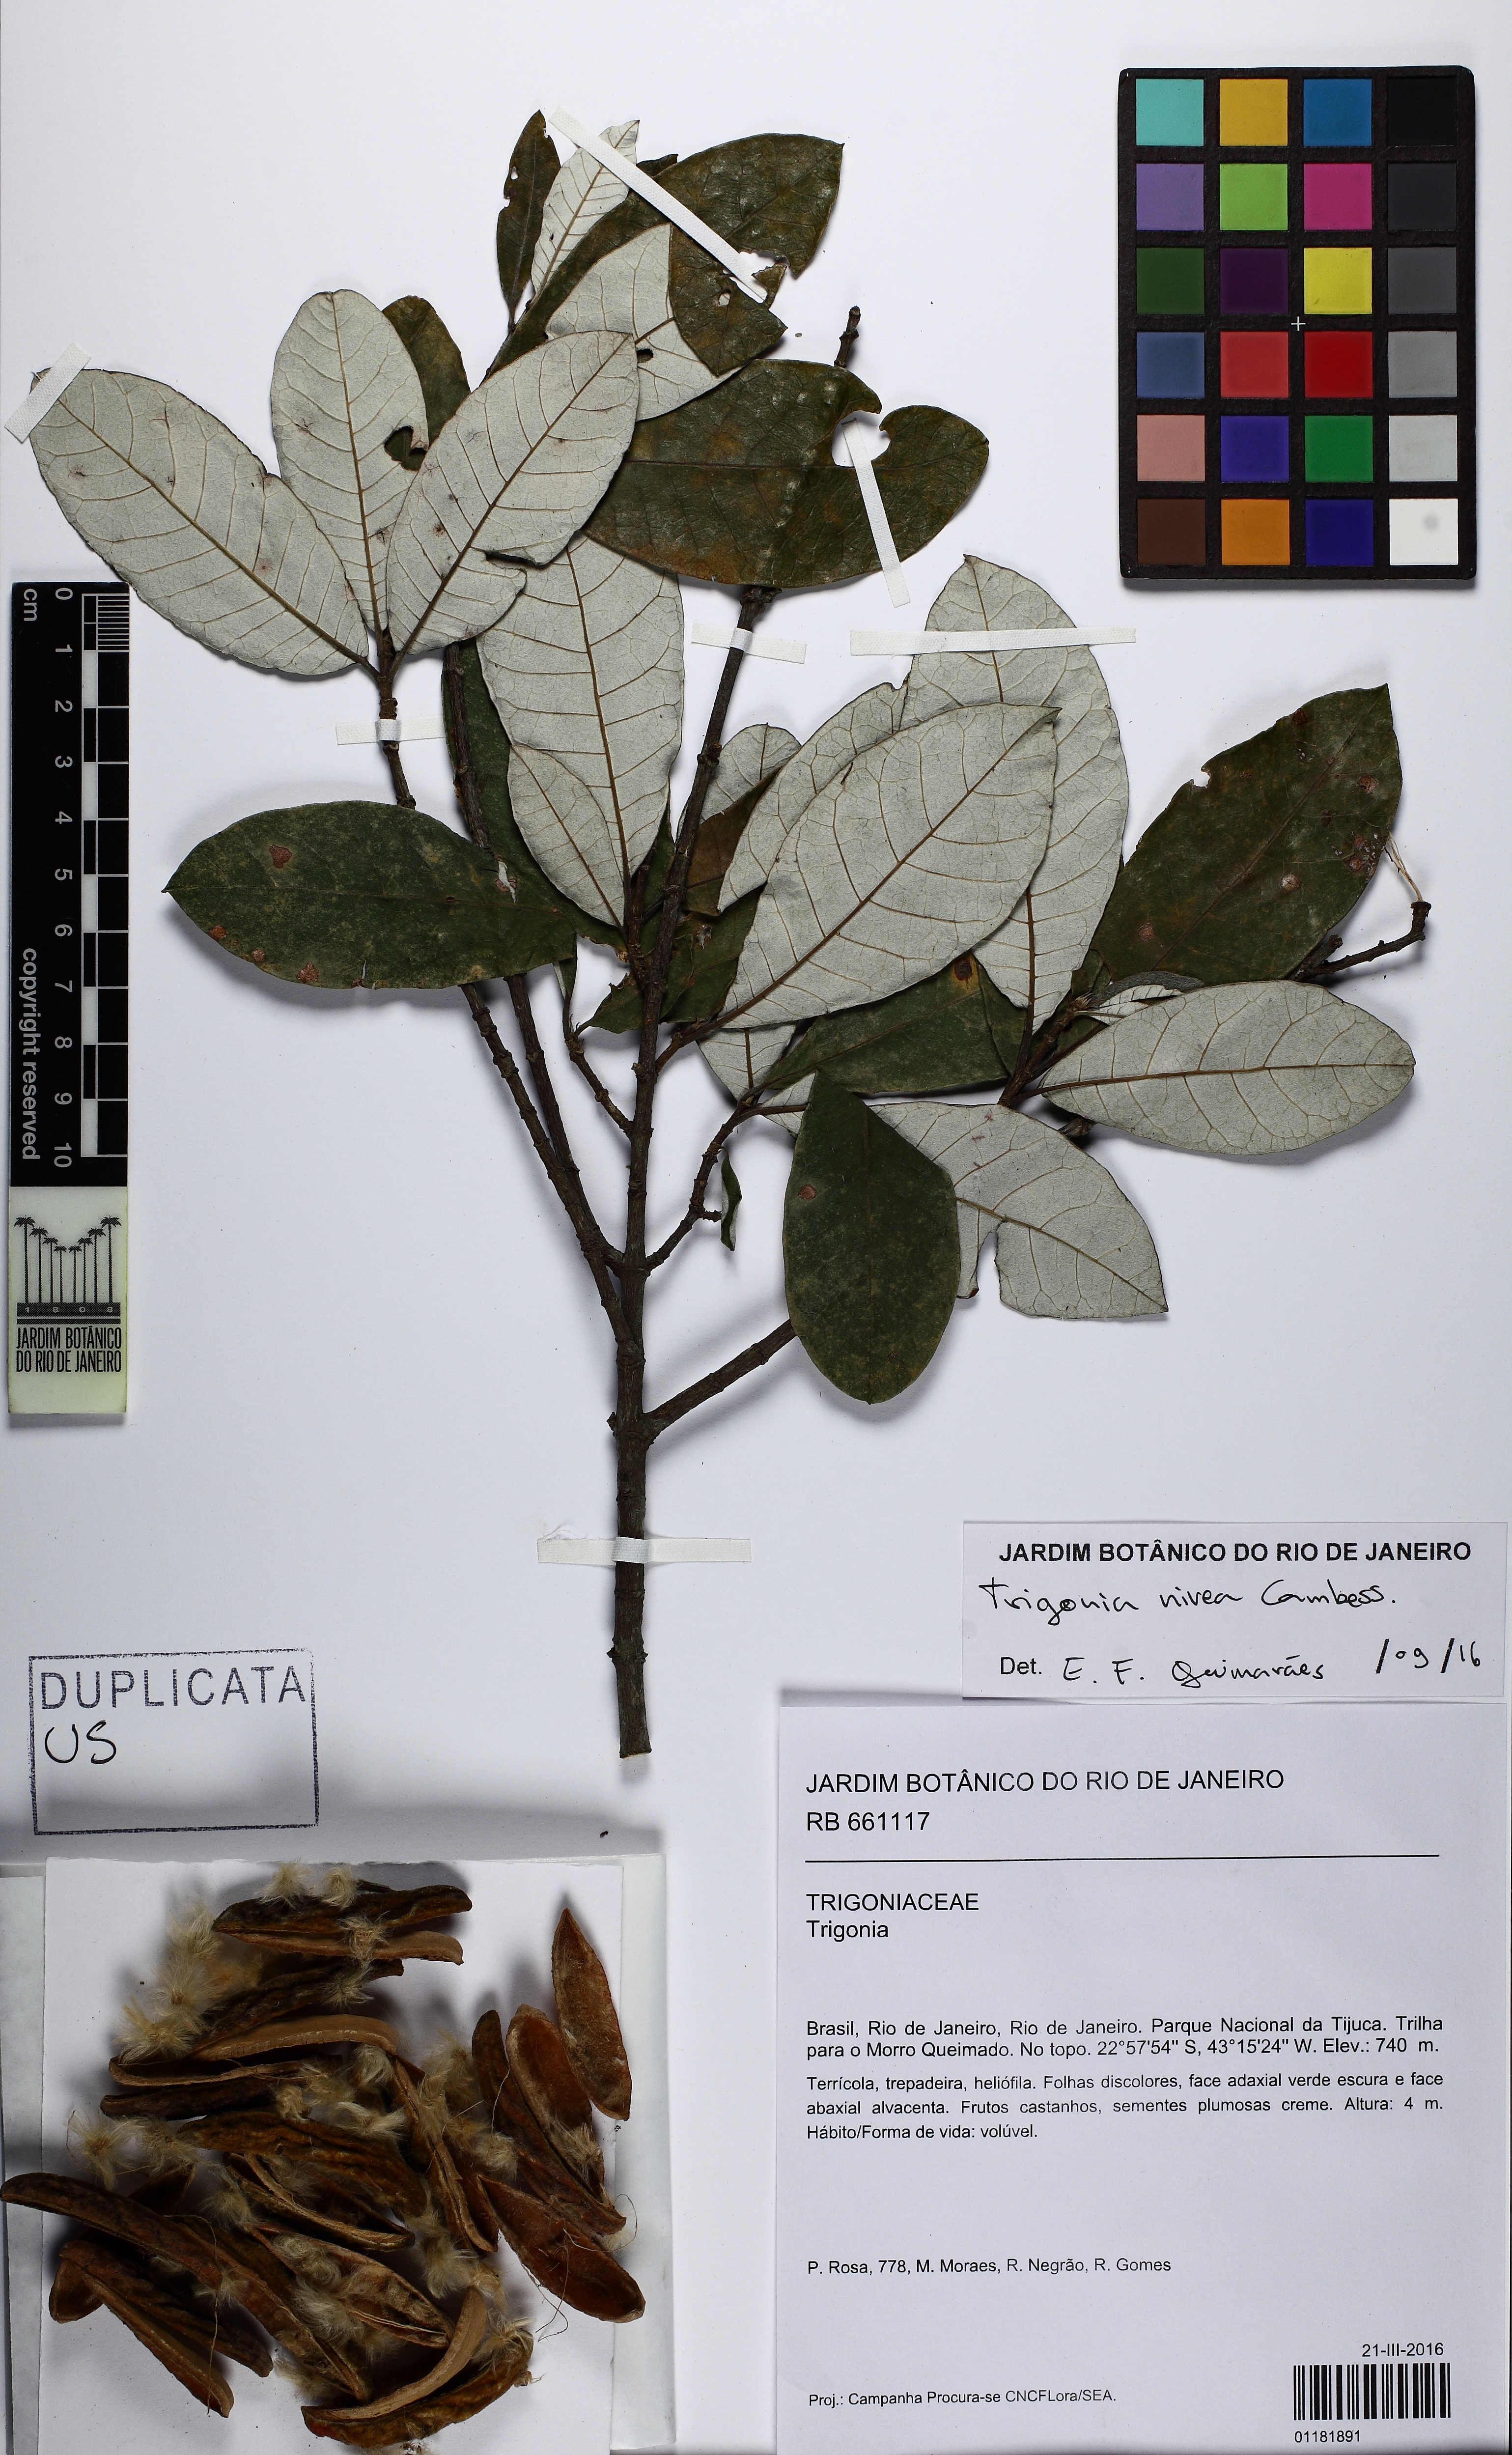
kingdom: Plantae
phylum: Tracheophyta
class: Magnoliopsida
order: Malpighiales
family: Trigoniaceae
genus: Trigonia
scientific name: Trigonia nivea
